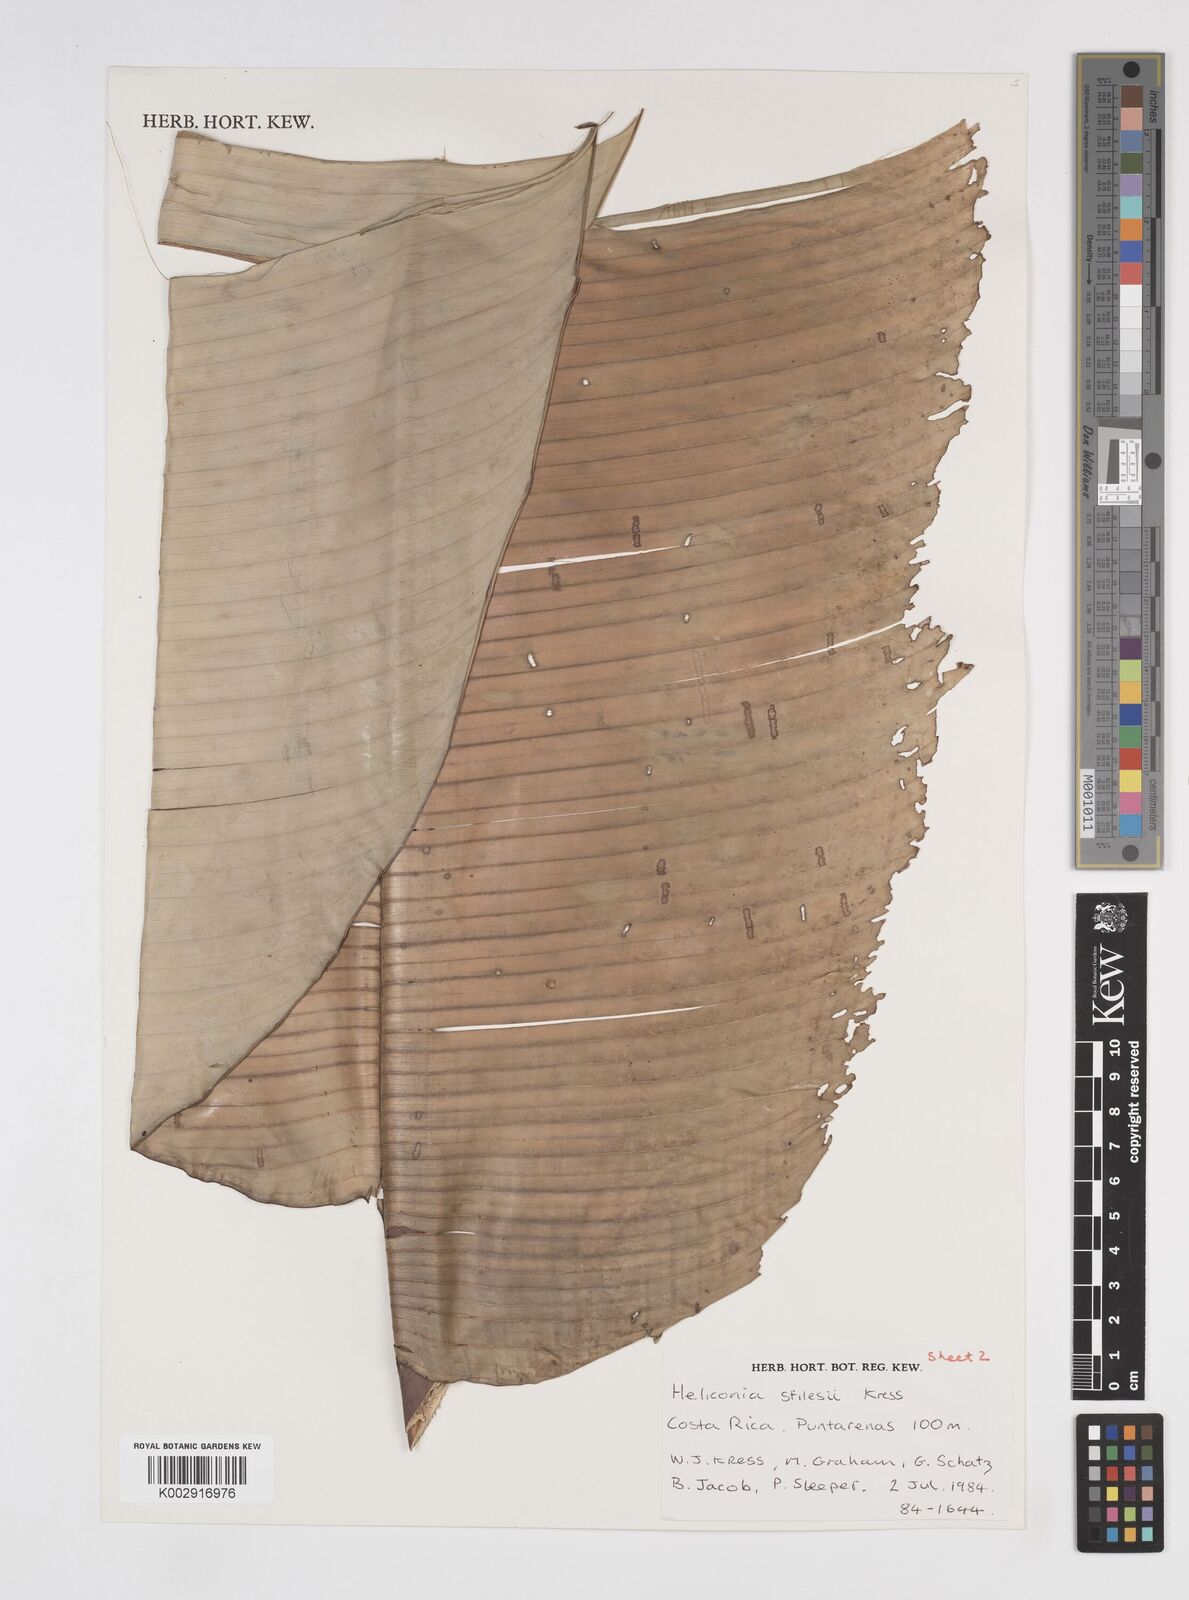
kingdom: Plantae
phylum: Tracheophyta
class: Liliopsida
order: Zingiberales
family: Heliconiaceae
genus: Heliconia
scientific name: Heliconia stilesii
